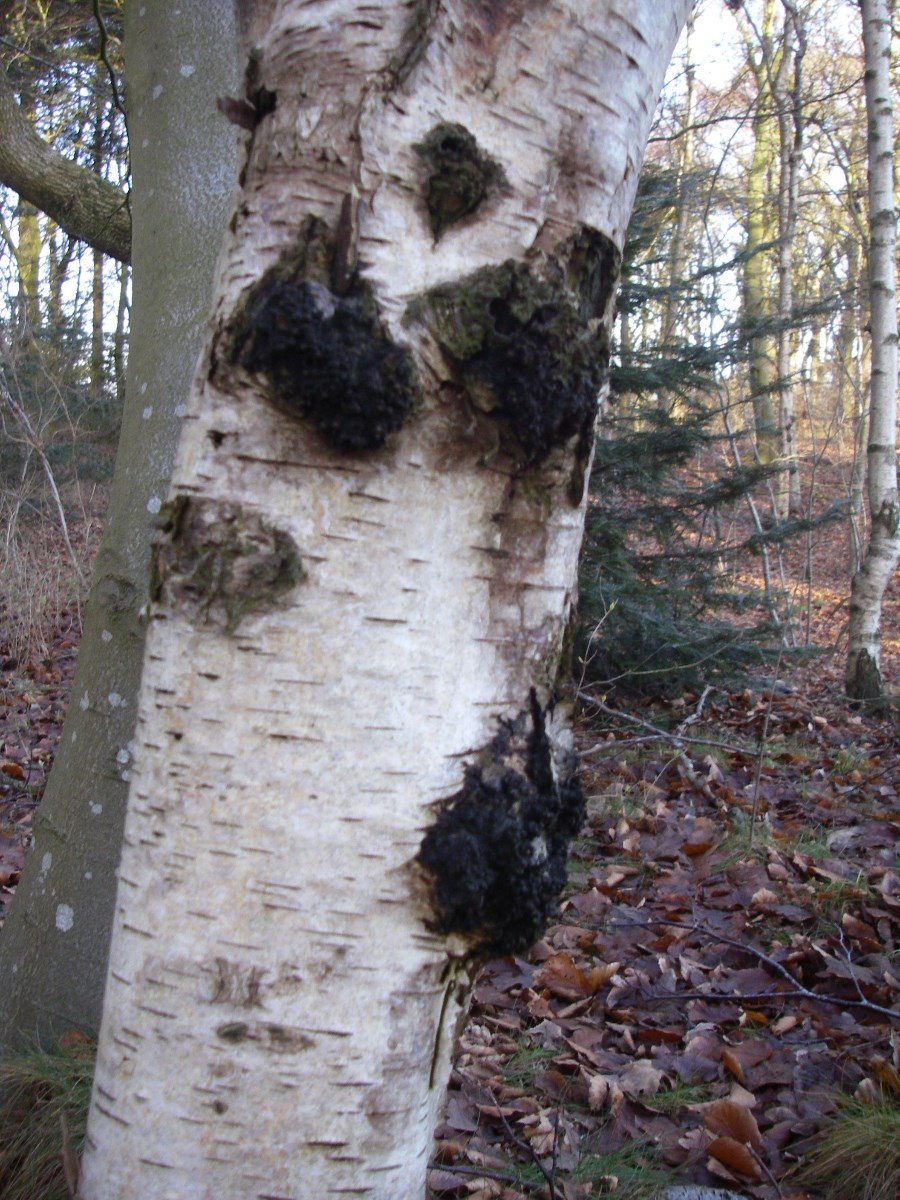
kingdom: Fungi
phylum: Basidiomycota
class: Agaricomycetes
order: Hymenochaetales
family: Hymenochaetaceae
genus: Inonotus
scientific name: Inonotus obliquus
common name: birke-spejlporesvamp
